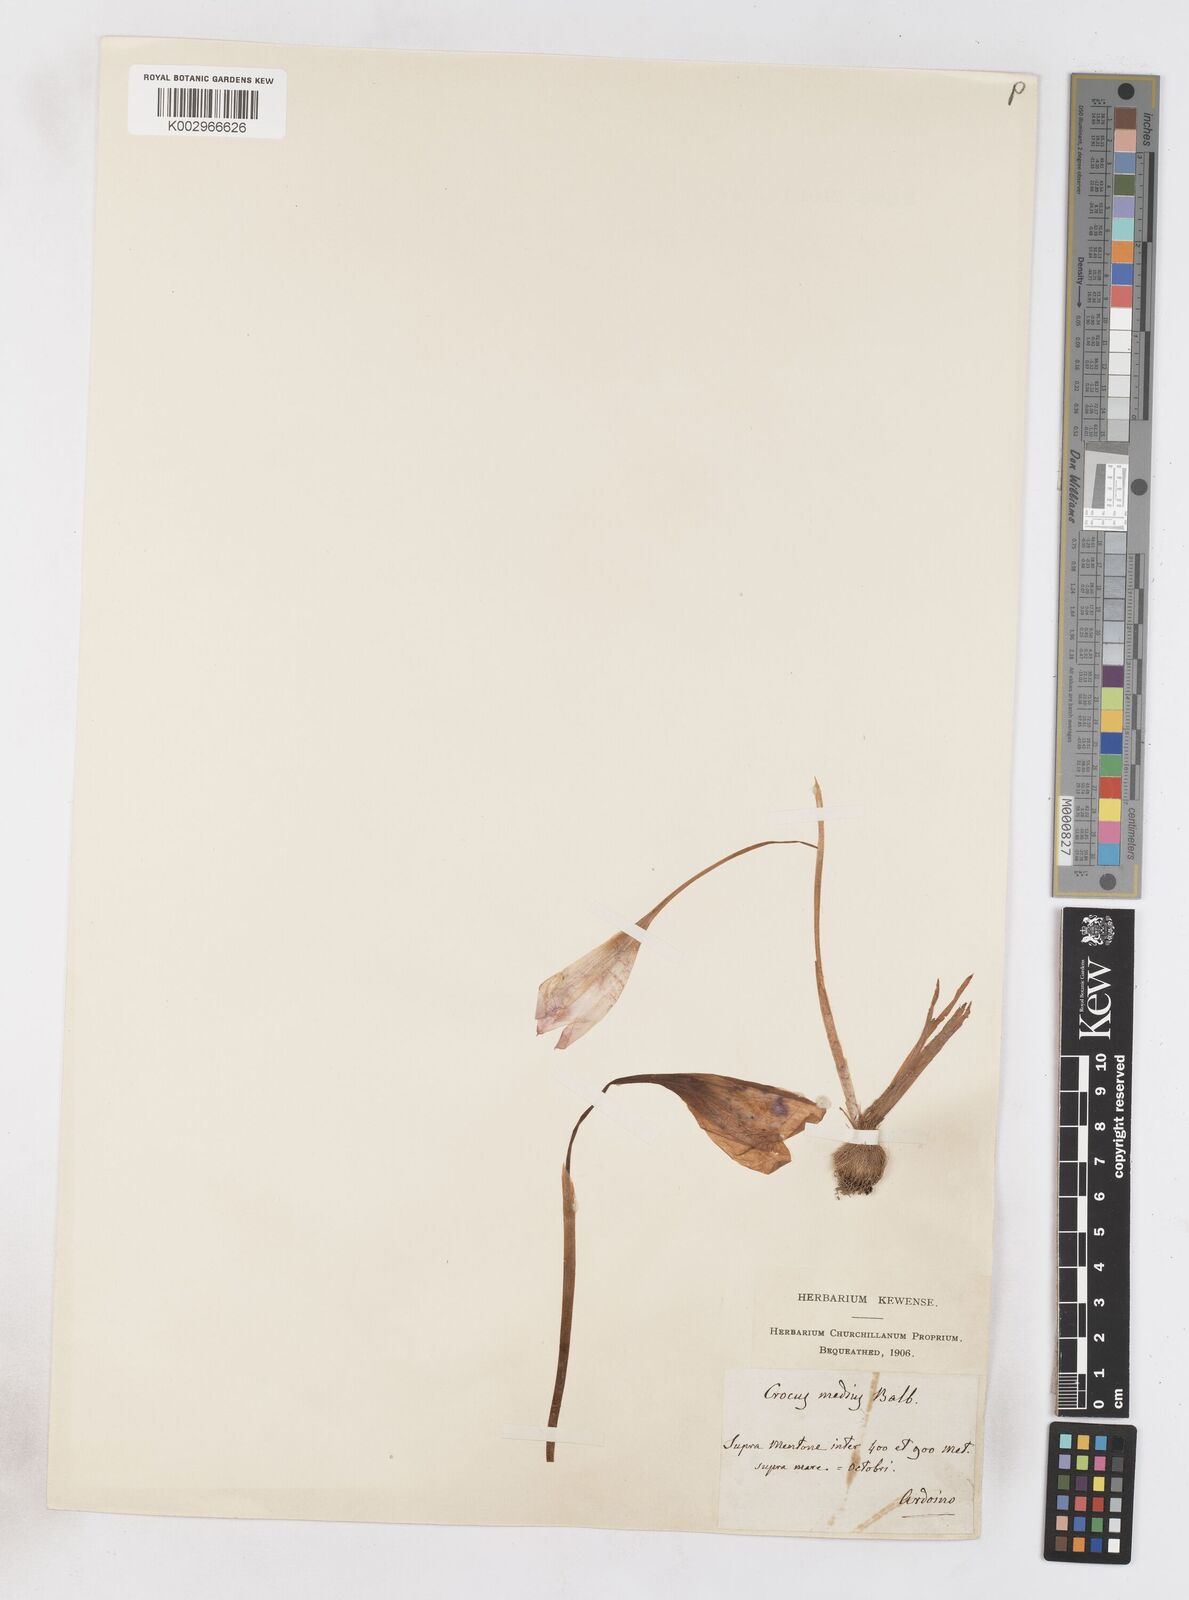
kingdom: Plantae
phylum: Tracheophyta
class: Liliopsida
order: Asparagales
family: Iridaceae
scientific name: Iridaceae
